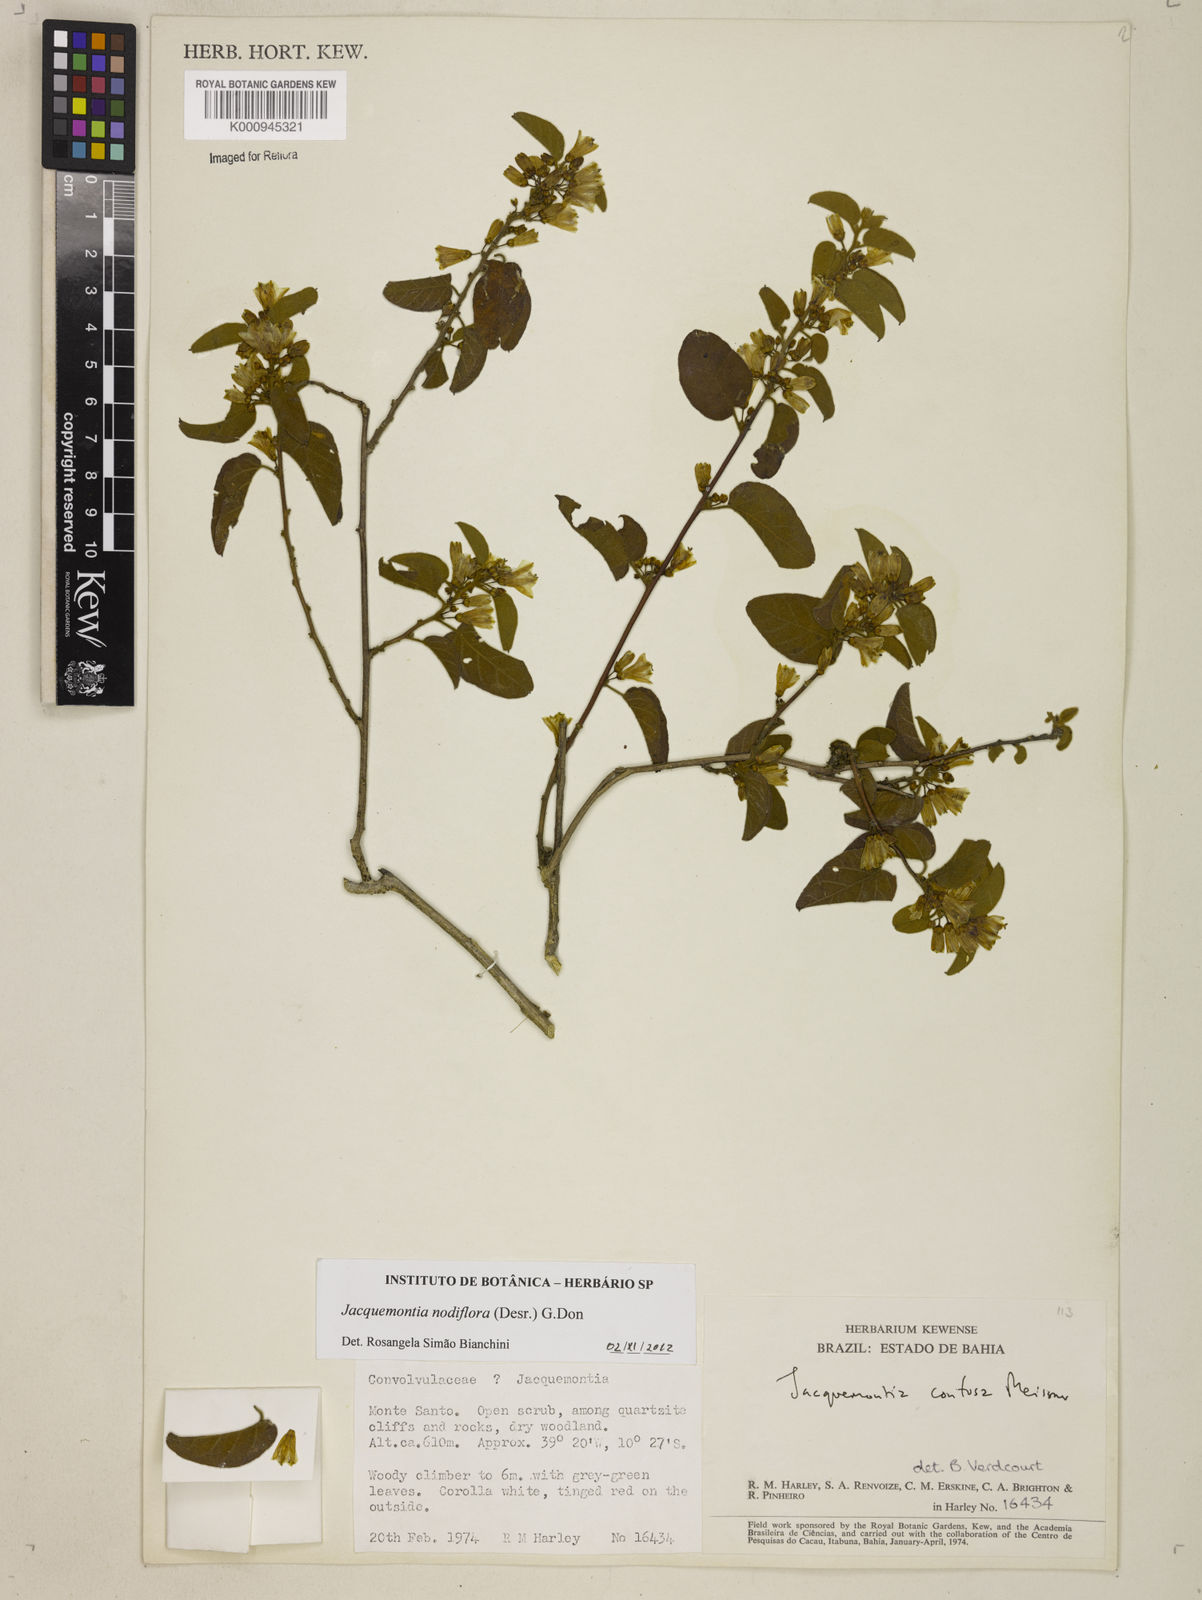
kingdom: Plantae
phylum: Tracheophyta
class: Magnoliopsida
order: Solanales
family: Convolvulaceae
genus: Jacquemontia
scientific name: Jacquemontia nodiflora
